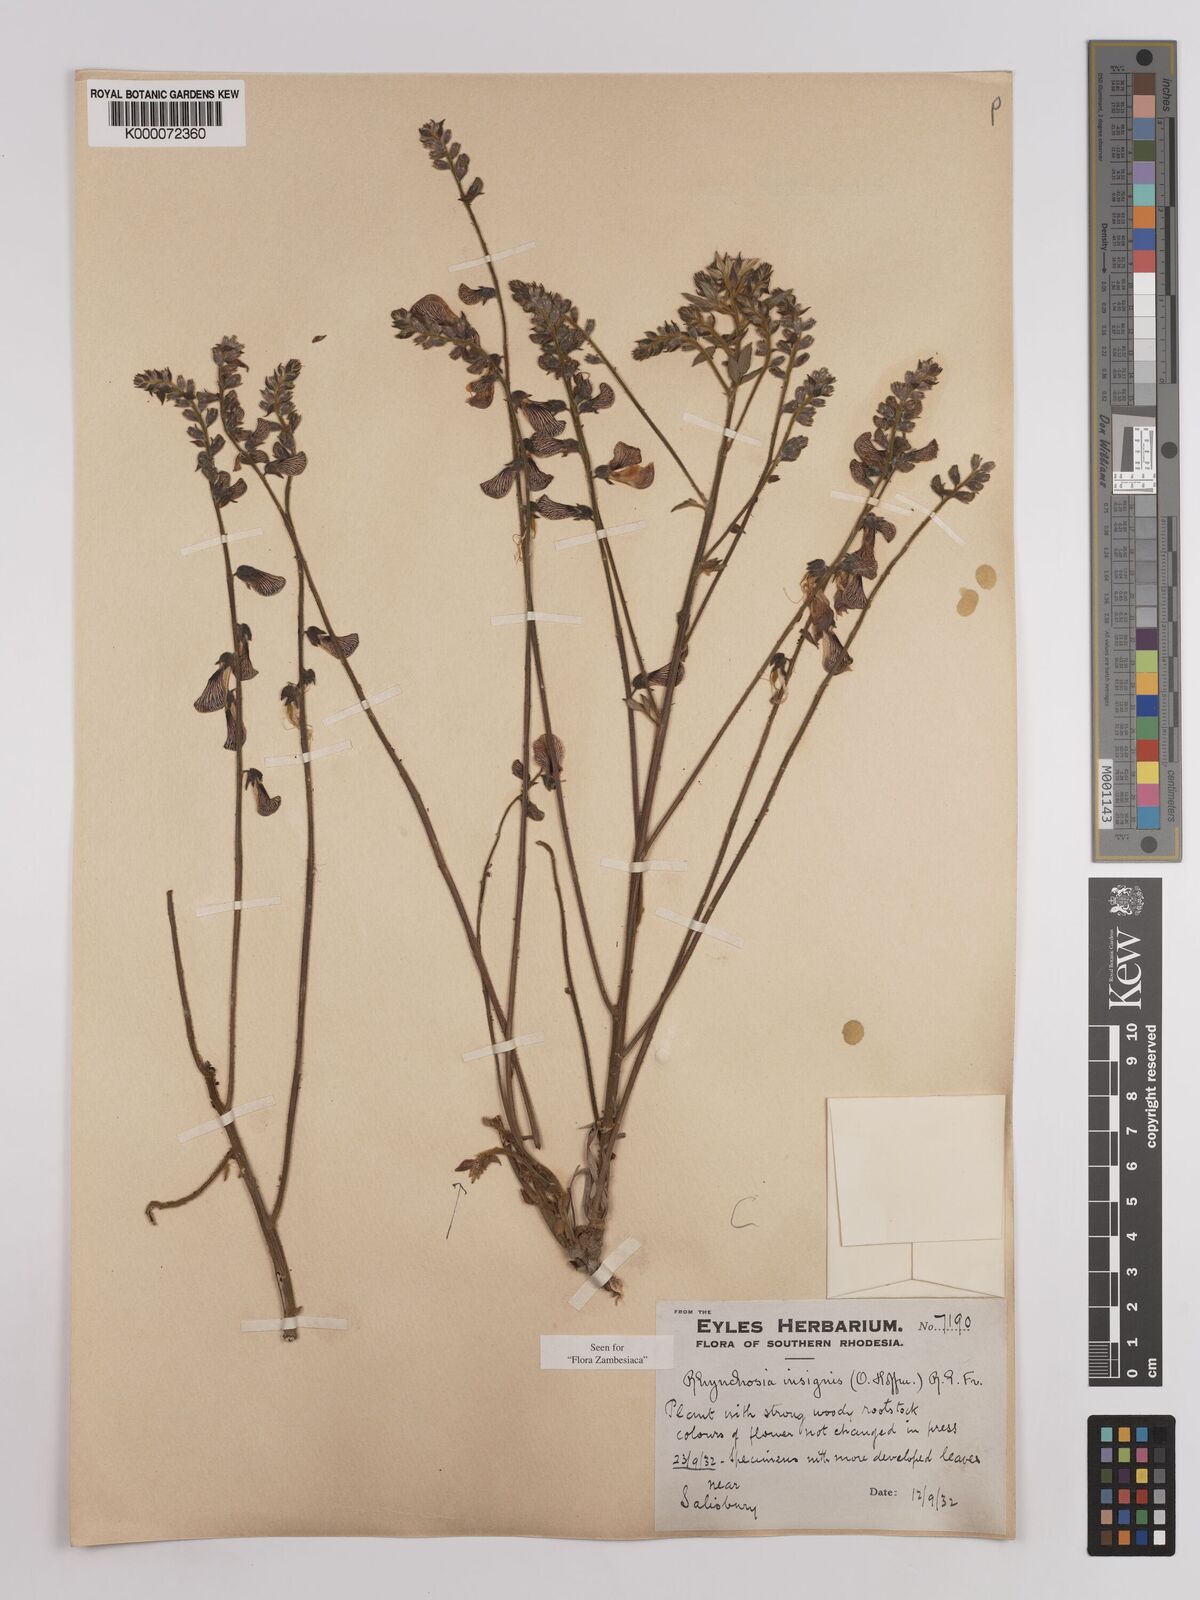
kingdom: Plantae
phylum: Tracheophyta
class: Magnoliopsida
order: Fabales
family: Fabaceae
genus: Rhynchosia
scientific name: Rhynchosia insignis
